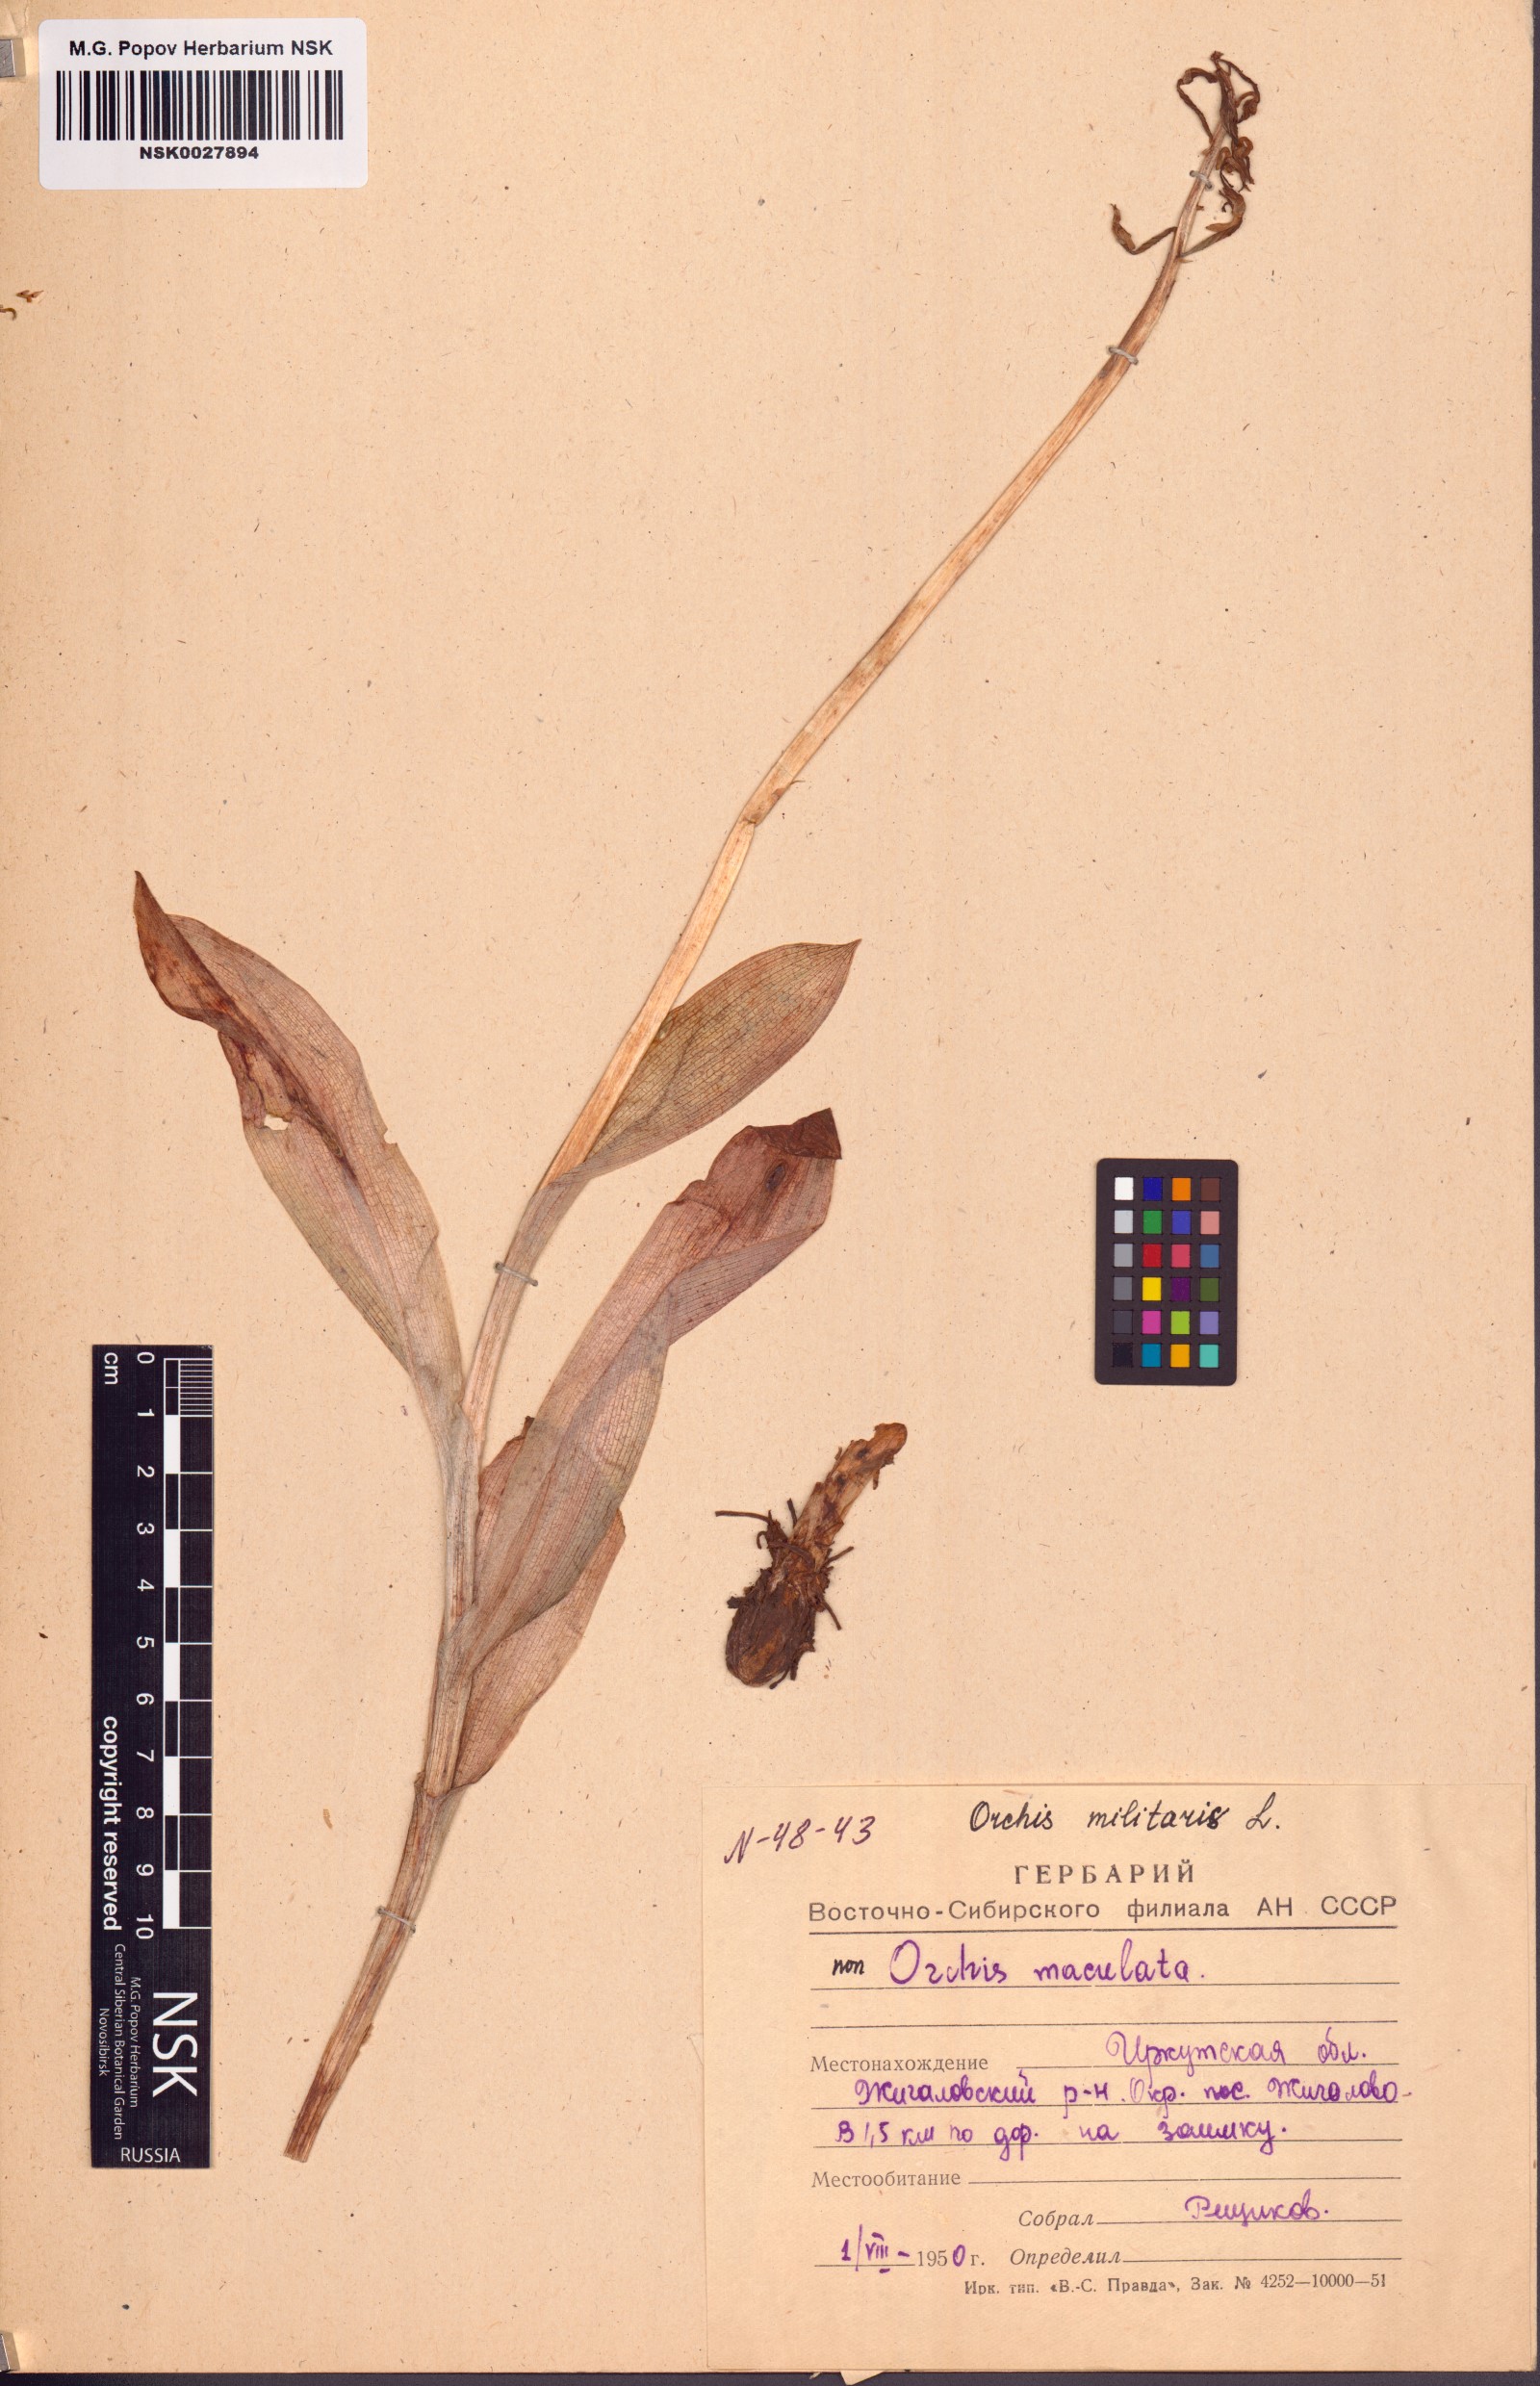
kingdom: Plantae
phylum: Tracheophyta
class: Liliopsida
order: Asparagales
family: Orchidaceae
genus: Orchis
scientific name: Orchis militaris
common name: Military orchid
